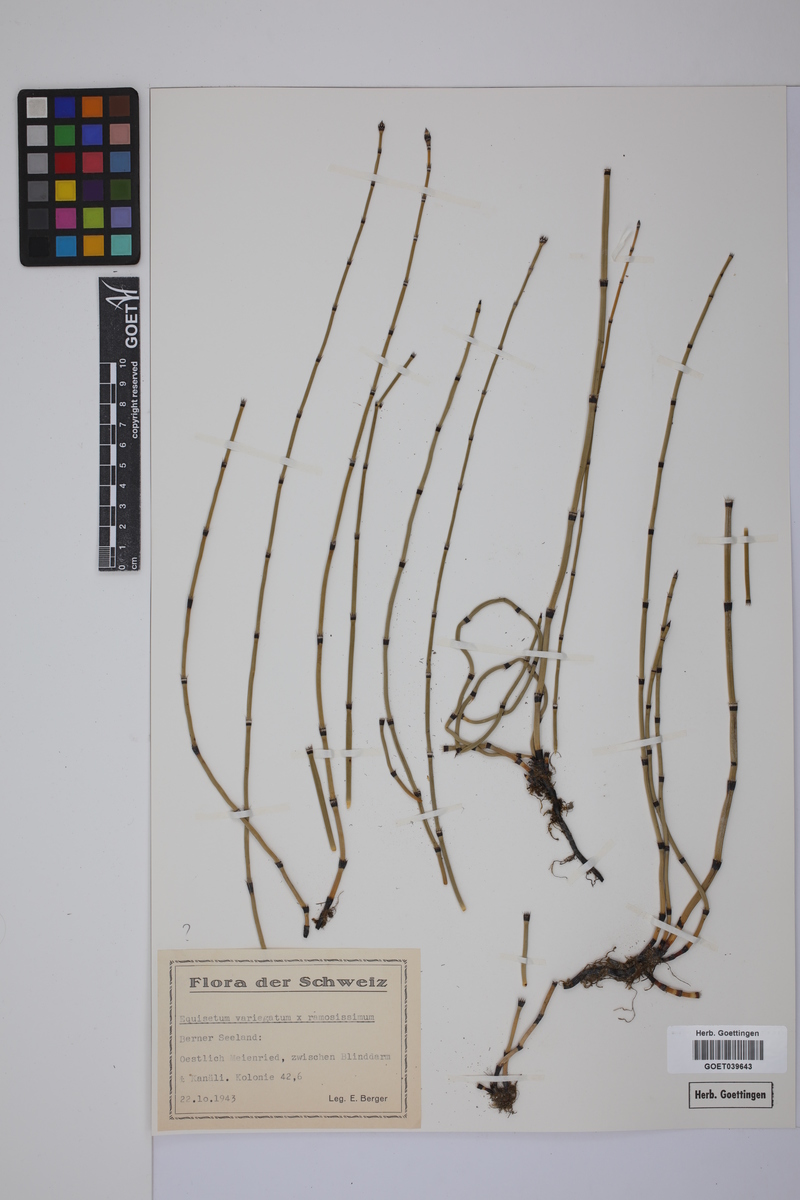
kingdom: Plantae
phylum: Tracheophyta
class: Polypodiopsida
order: Equisetales
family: Equisetaceae
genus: Equisetum
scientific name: Equisetum giganteum
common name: Giant horsetail
